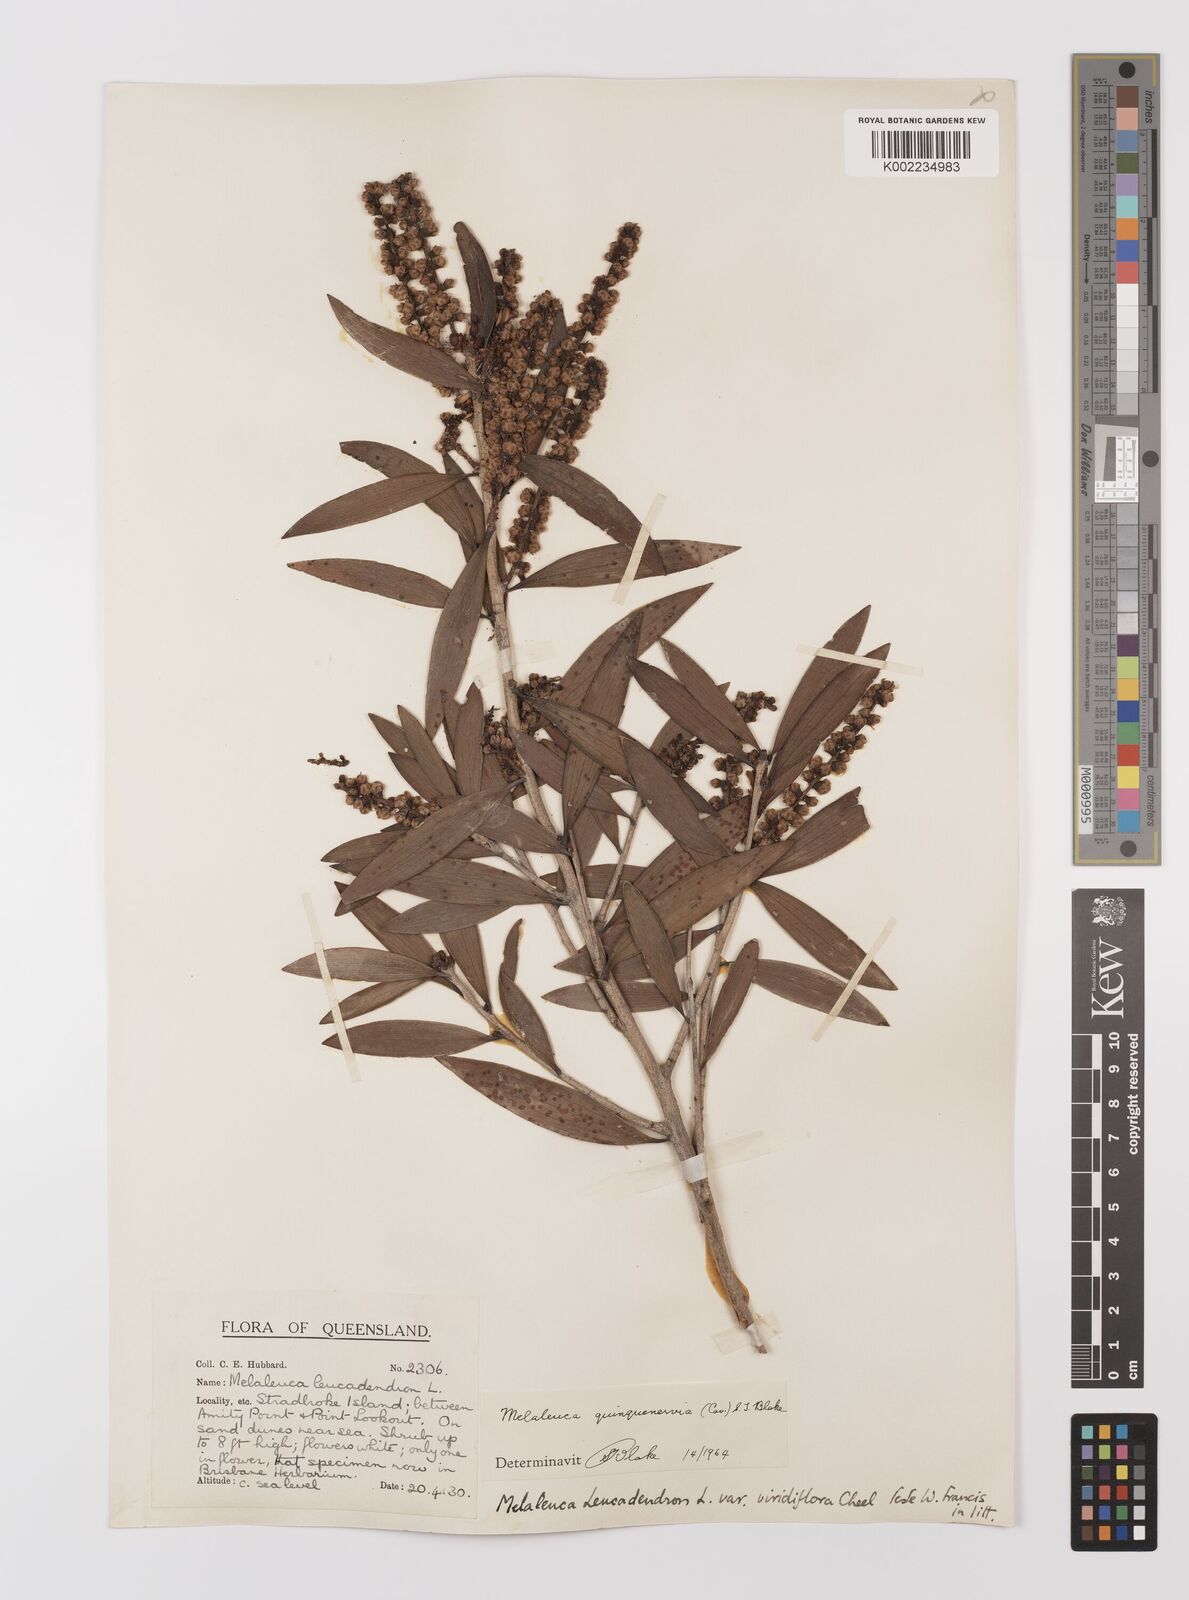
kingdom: Plantae
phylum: Tracheophyta
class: Magnoliopsida
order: Myrtales
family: Myrtaceae
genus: Melaleuca
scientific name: Melaleuca quinquenervia
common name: Punktree
